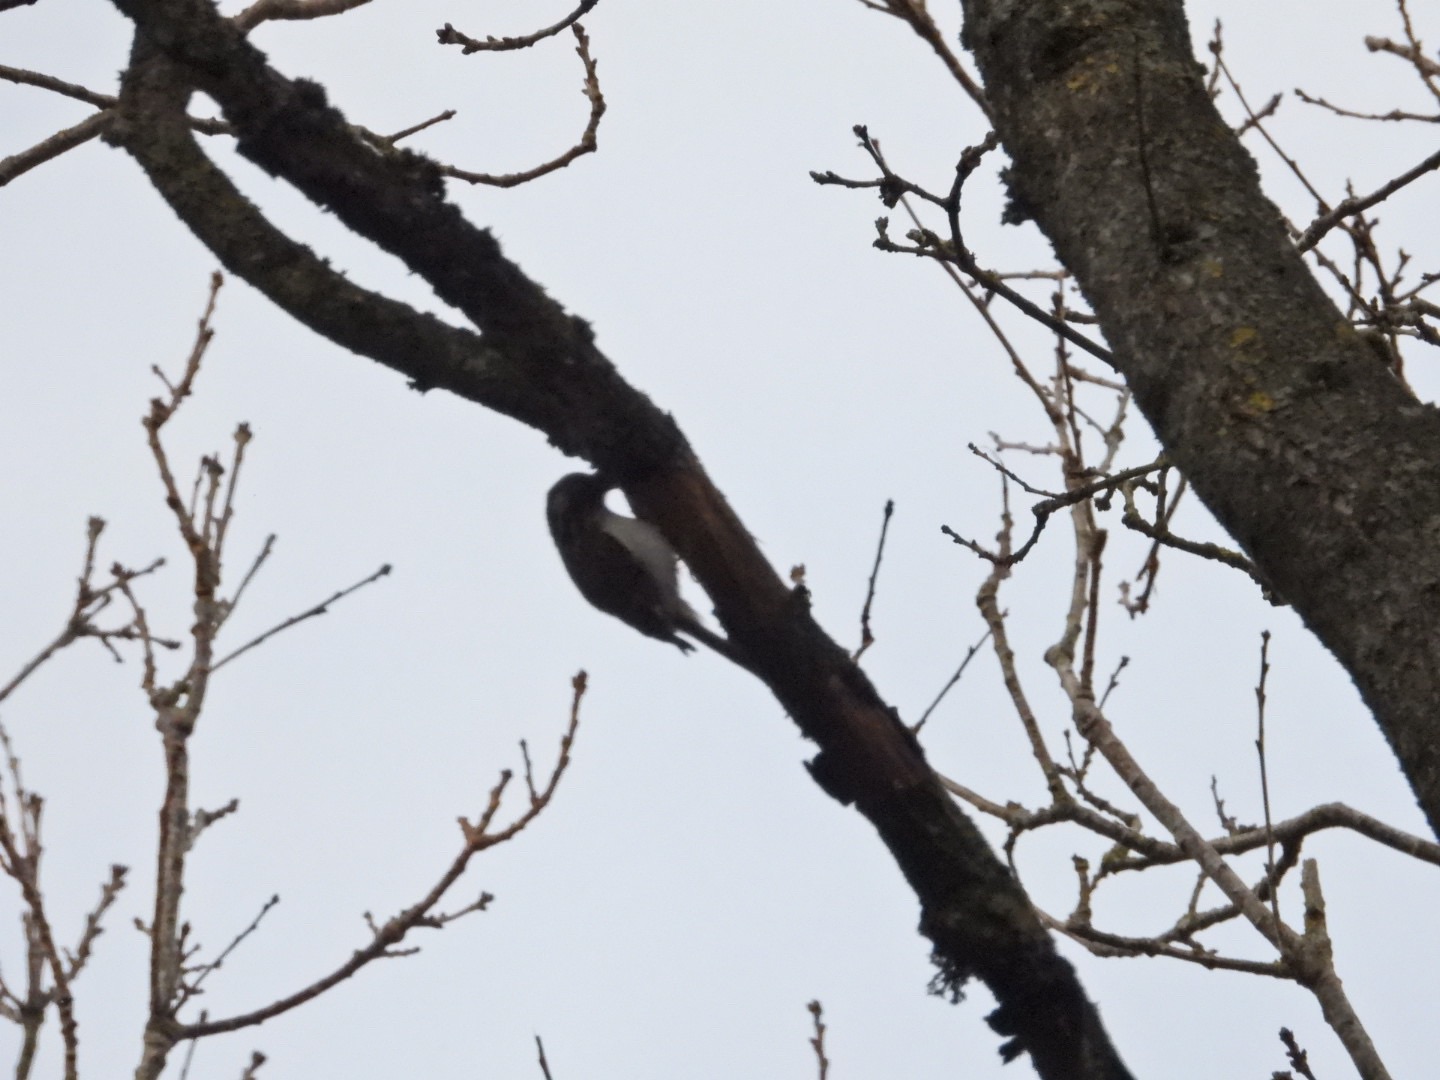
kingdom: Animalia
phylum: Chordata
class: Aves
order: Passeriformes
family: Certhiidae
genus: Certhia
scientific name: Certhia familiaris
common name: Træløber
